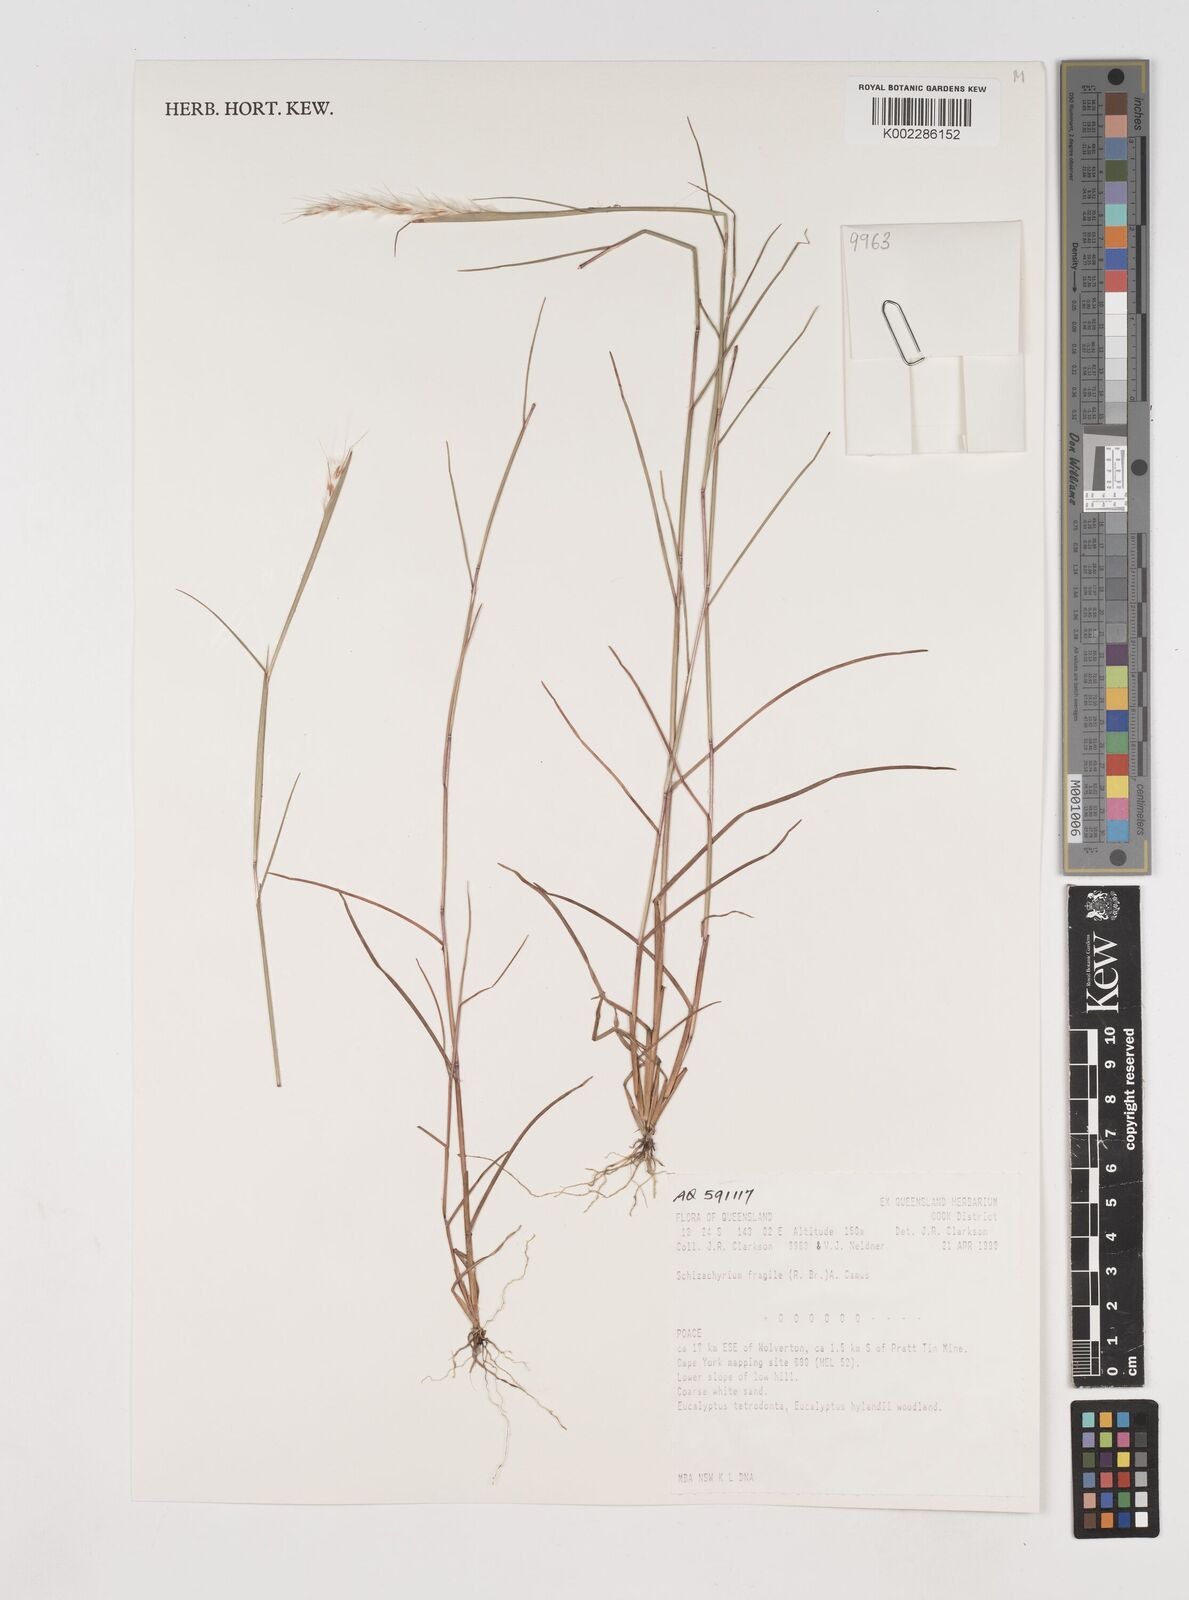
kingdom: Plantae
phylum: Tracheophyta
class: Liliopsida
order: Poales
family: Poaceae
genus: Schizachyrium
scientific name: Schizachyrium fragile
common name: Red spathe grass
